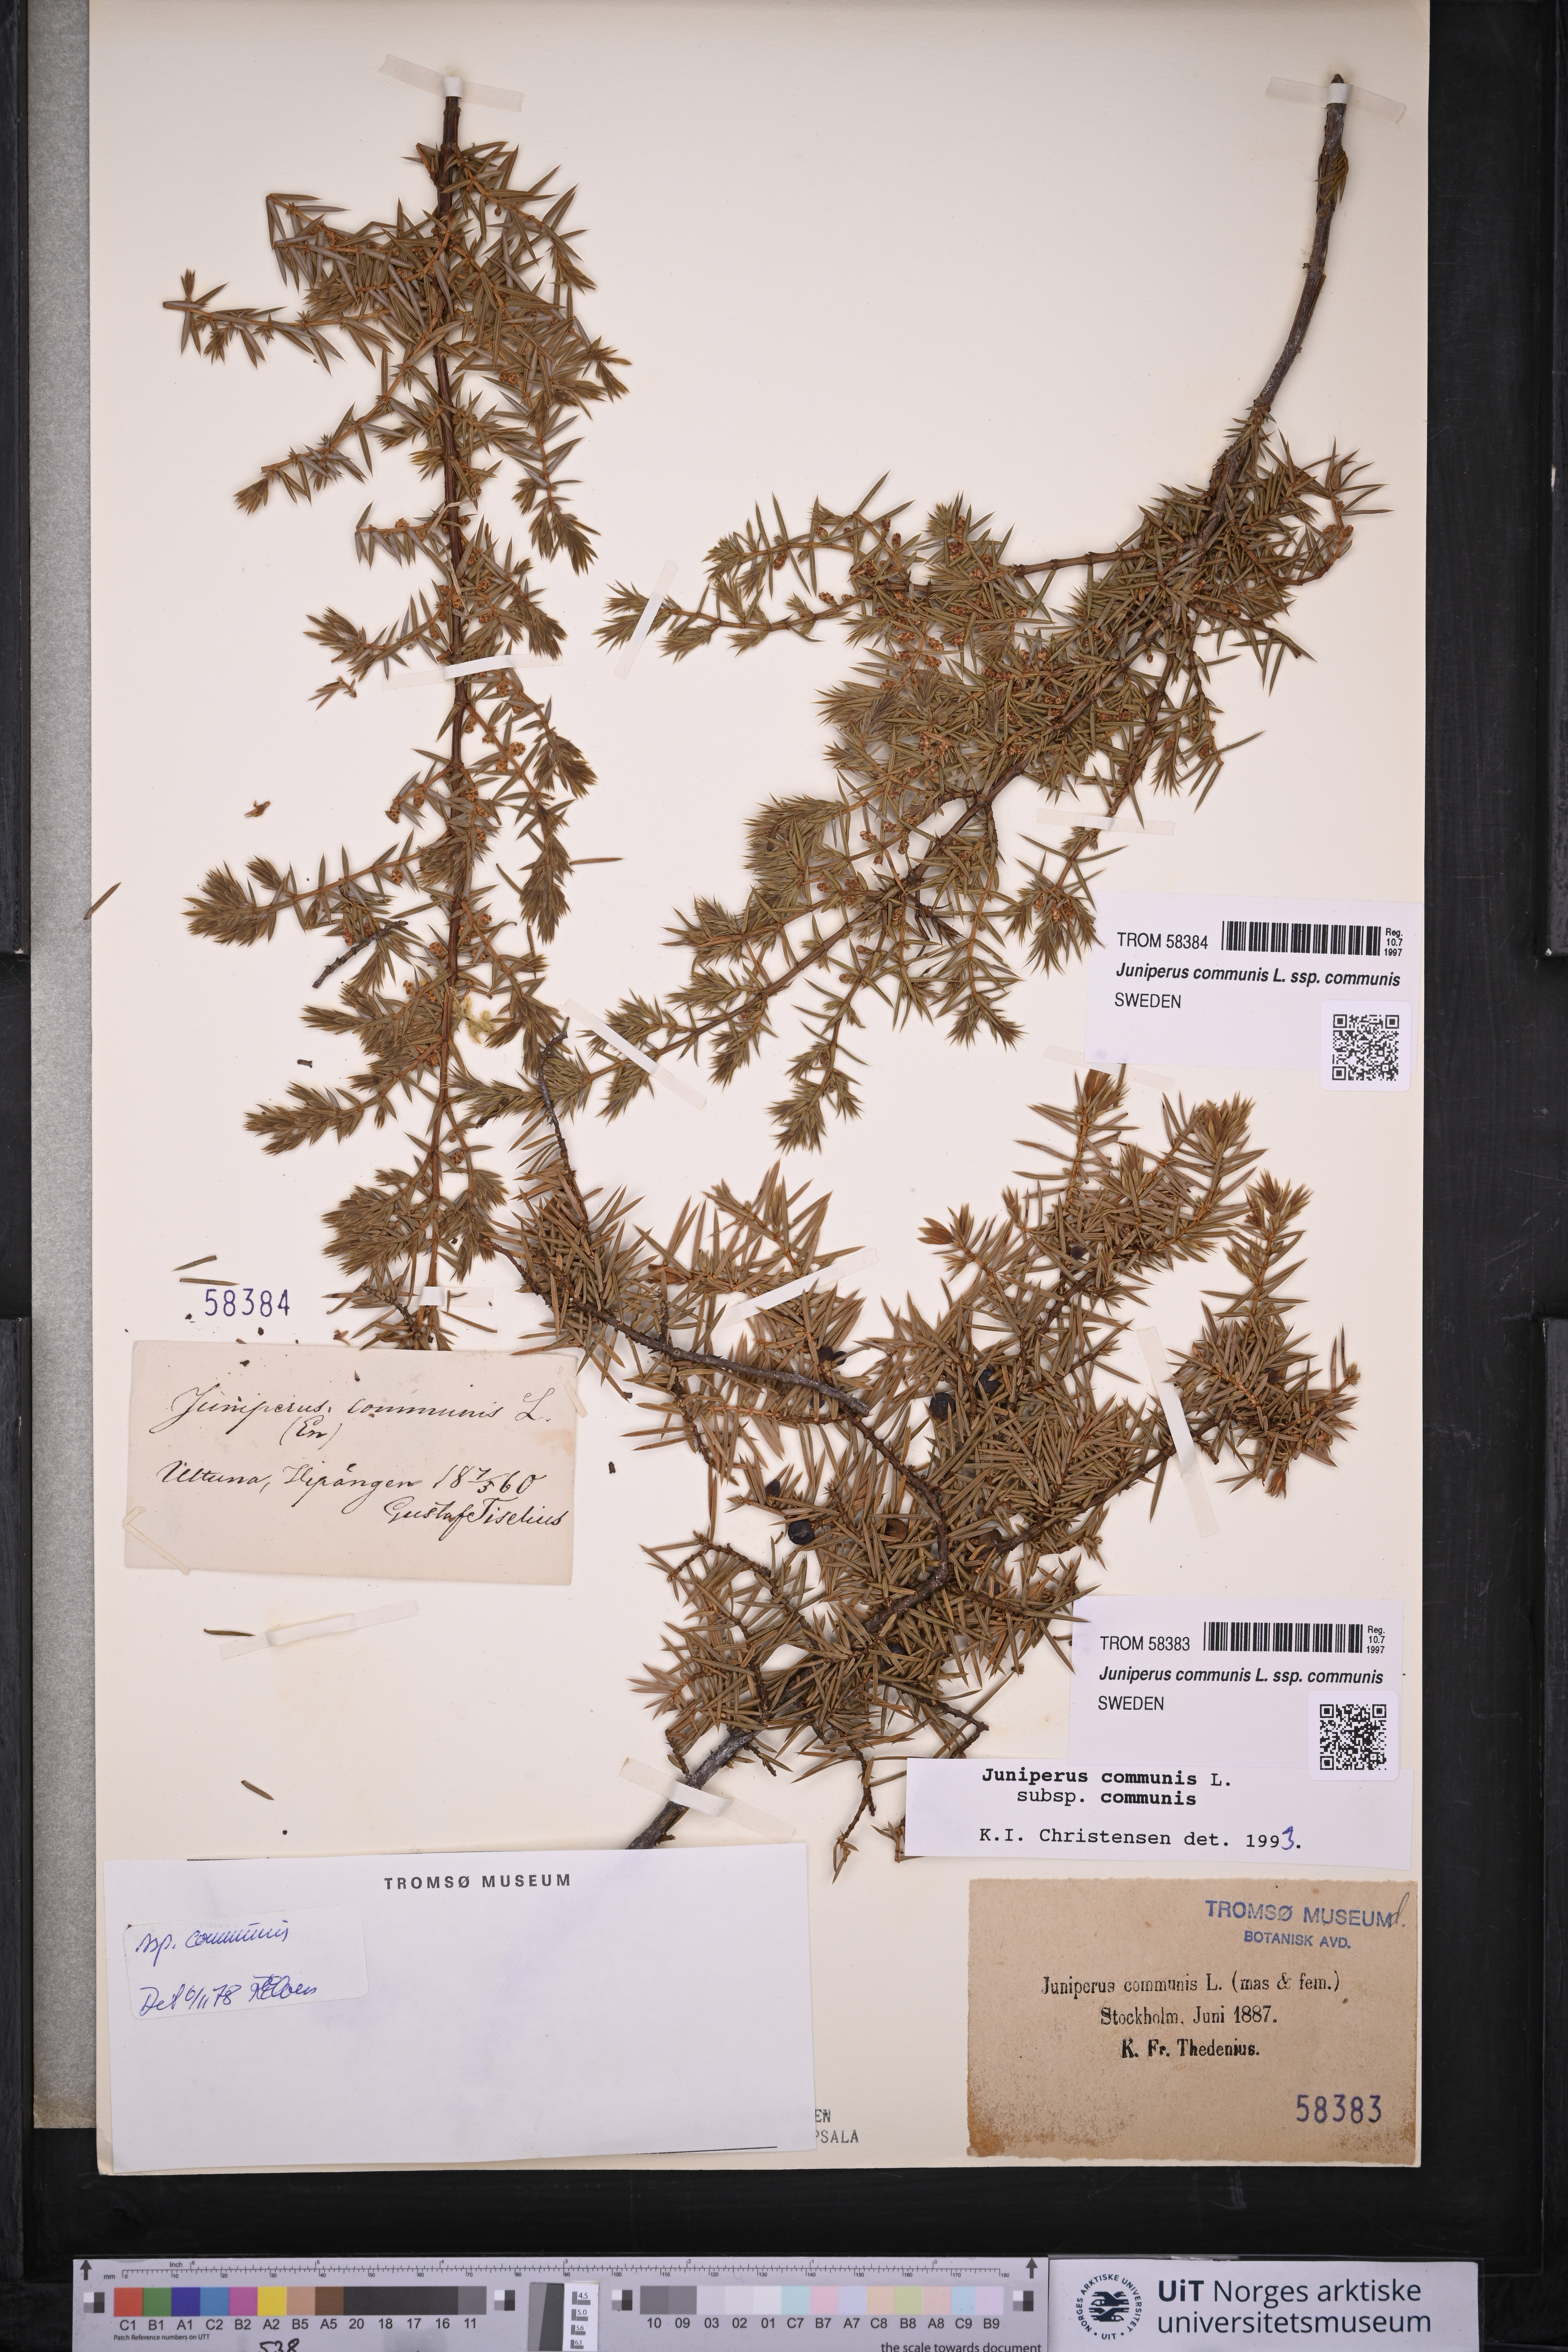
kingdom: Plantae
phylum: Tracheophyta
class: Pinopsida
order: Pinales
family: Cupressaceae
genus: Juniperus
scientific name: Juniperus communis
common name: Common juniper
